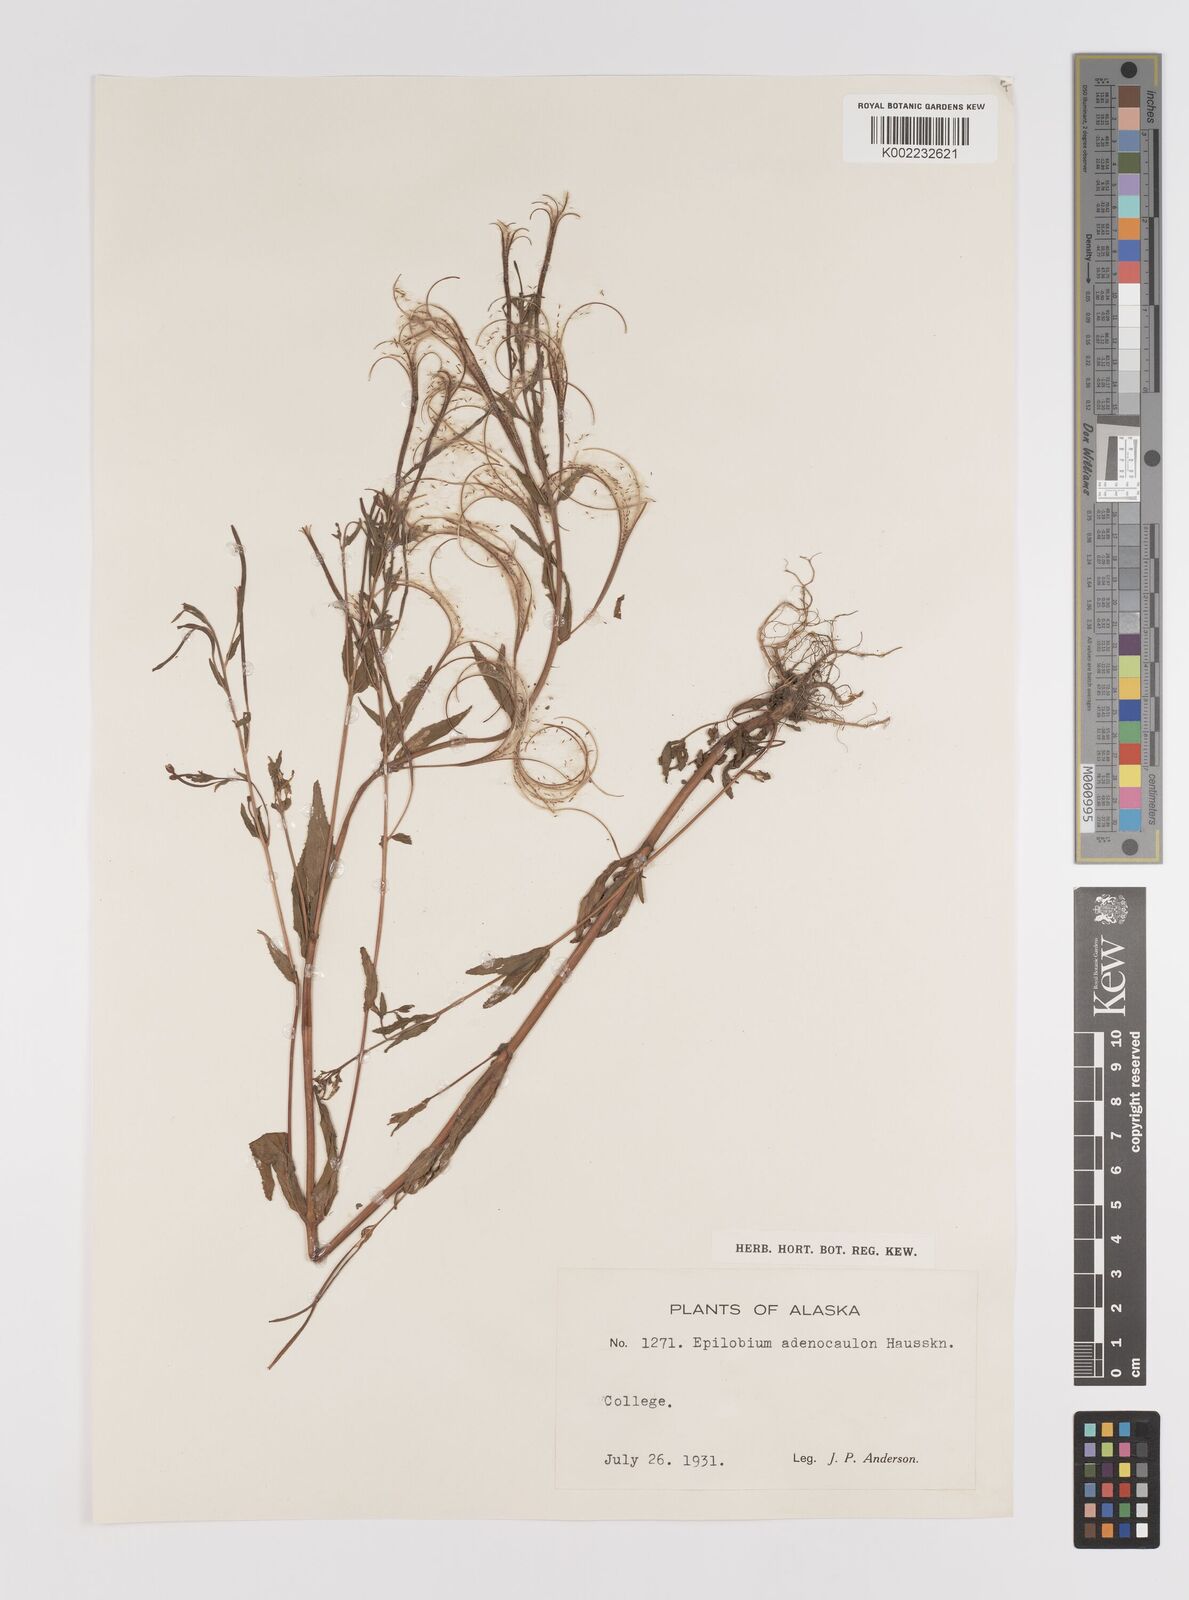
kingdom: Plantae
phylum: Tracheophyta
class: Magnoliopsida
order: Myrtales
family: Onagraceae
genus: Epilobium
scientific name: Epilobium ciliatum
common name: American willowherb
